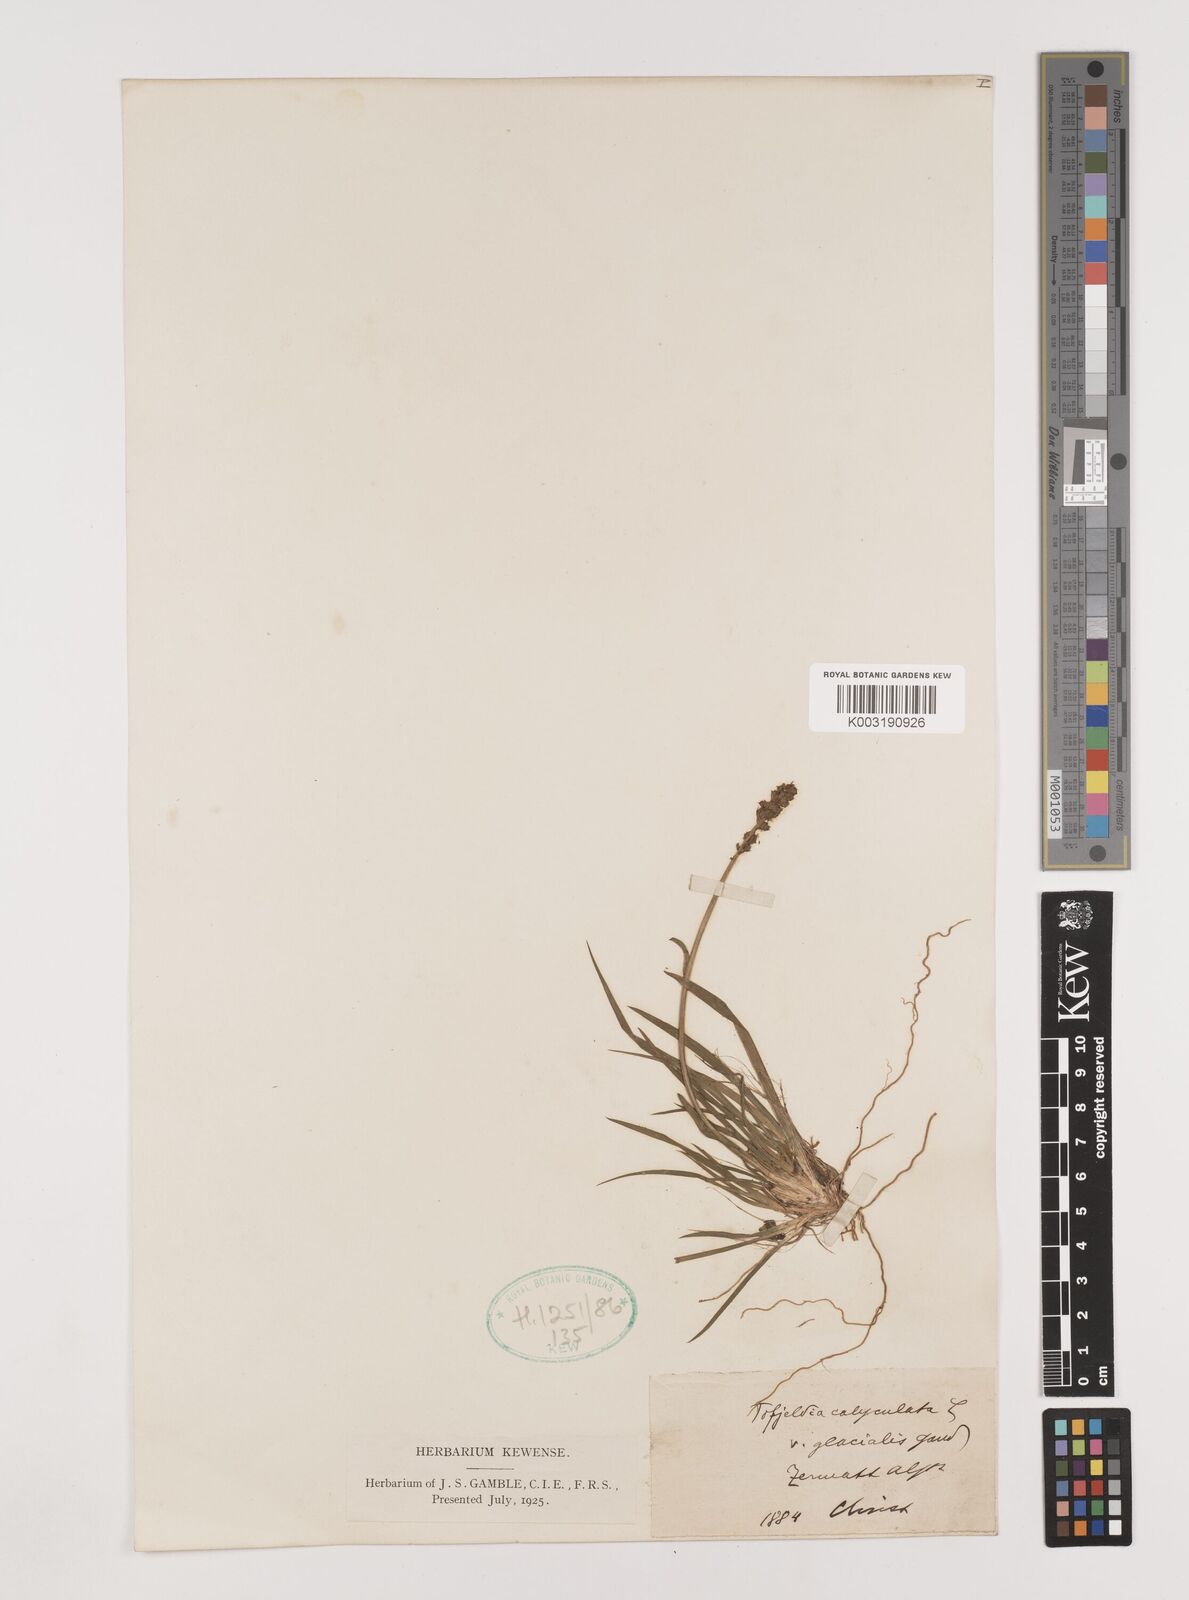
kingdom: Plantae
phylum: Tracheophyta
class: Liliopsida
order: Alismatales
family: Tofieldiaceae
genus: Tofieldia
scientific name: Tofieldia calyculata
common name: German-asphodel
